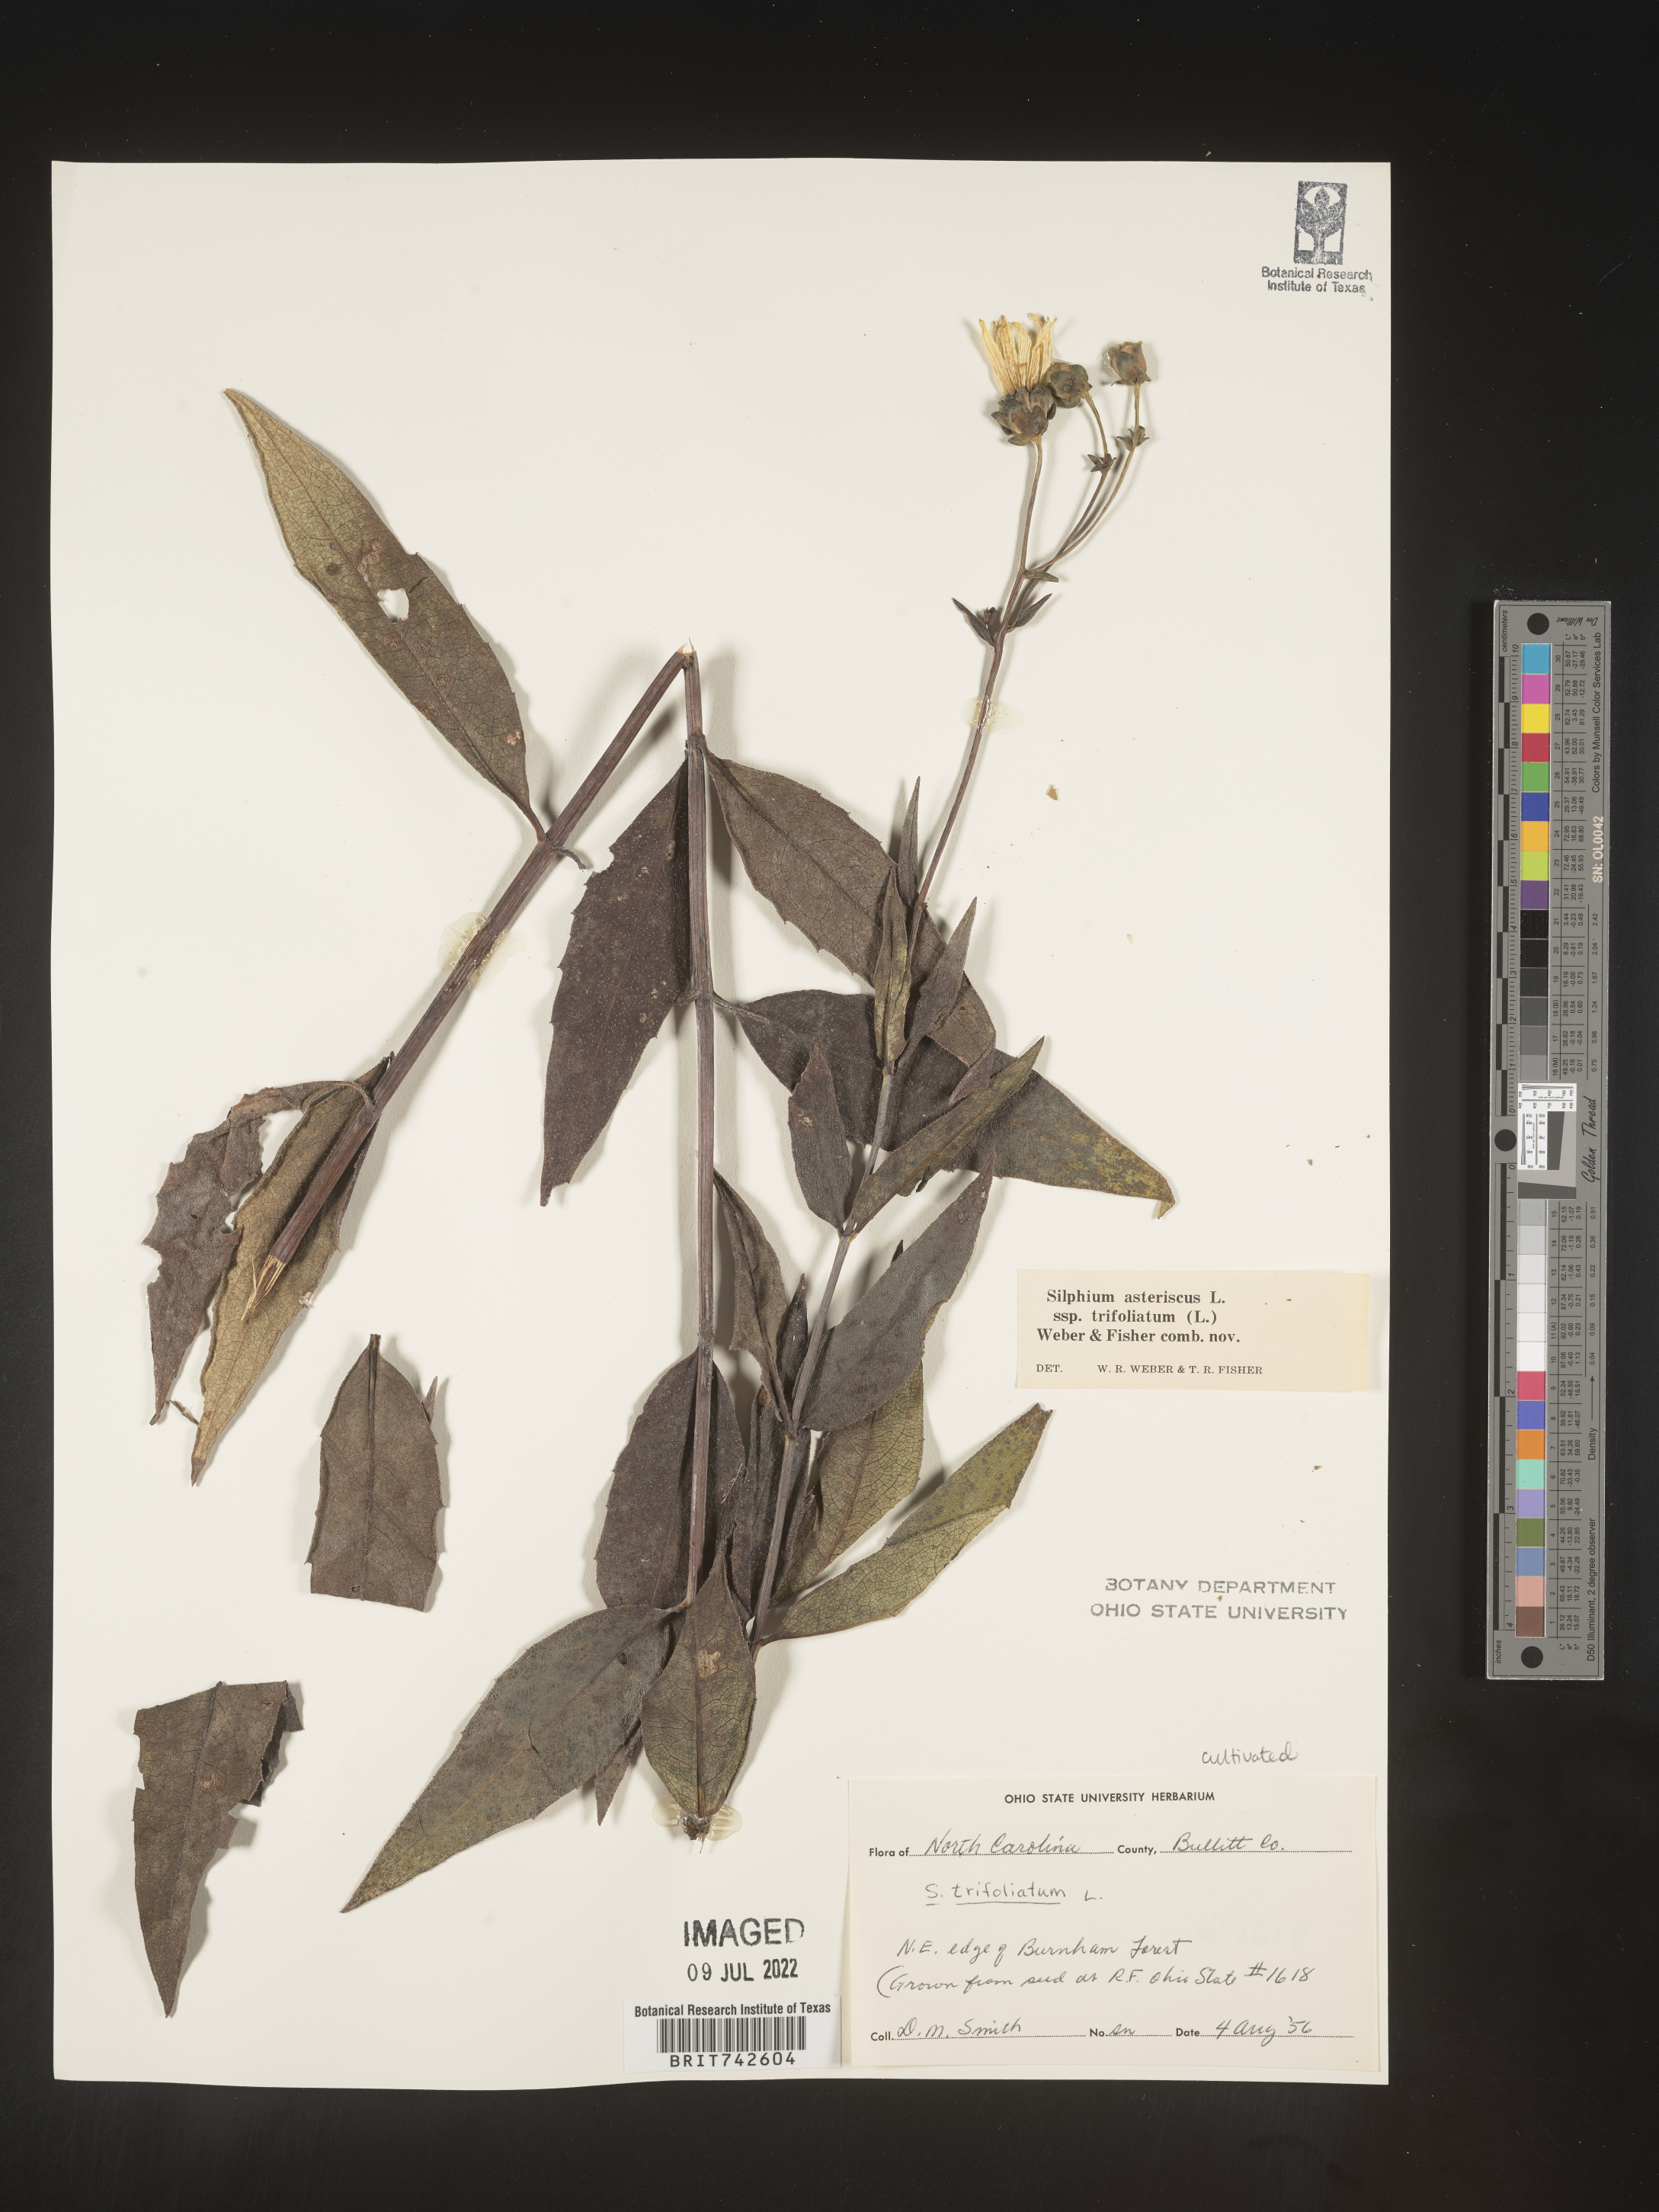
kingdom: Plantae
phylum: Tracheophyta
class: Magnoliopsida
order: Asterales
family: Asteraceae
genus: Silphium
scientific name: Silphium
